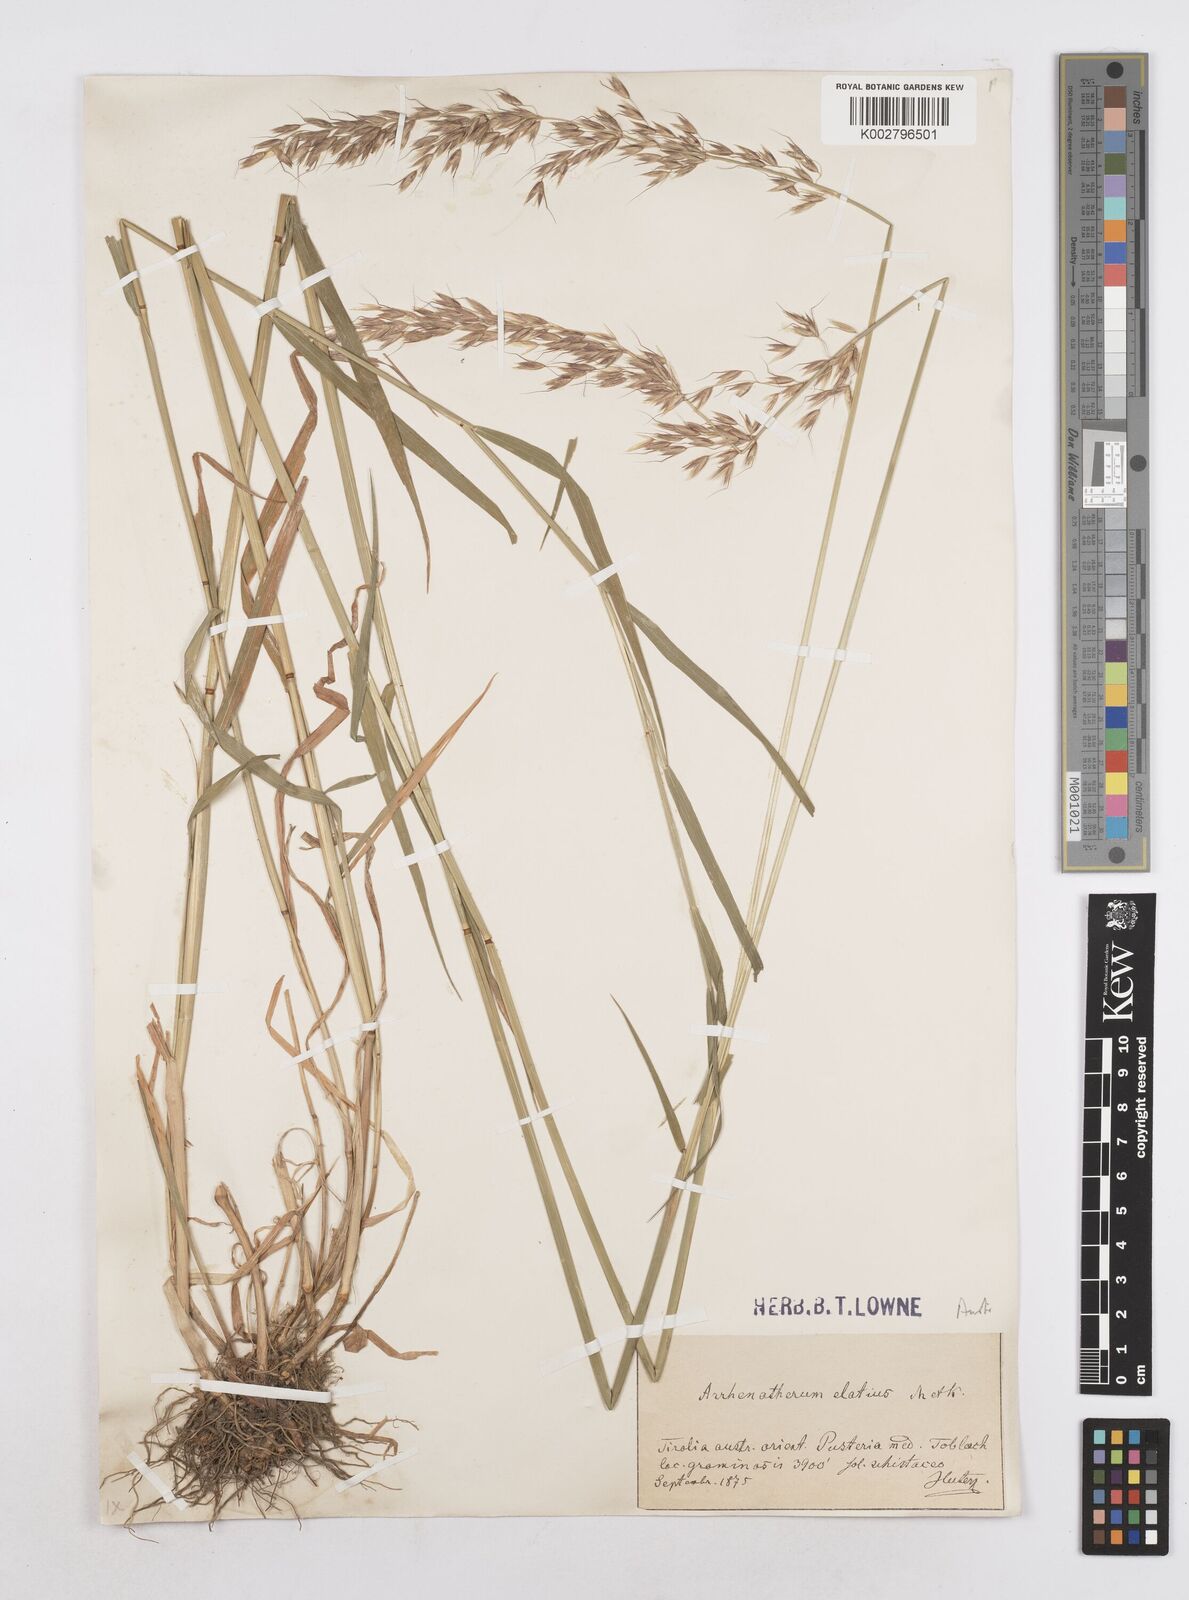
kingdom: Plantae
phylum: Tracheophyta
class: Liliopsida
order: Poales
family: Poaceae
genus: Arrhenatherum
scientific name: Arrhenatherum elatius
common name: Tall oatgrass
